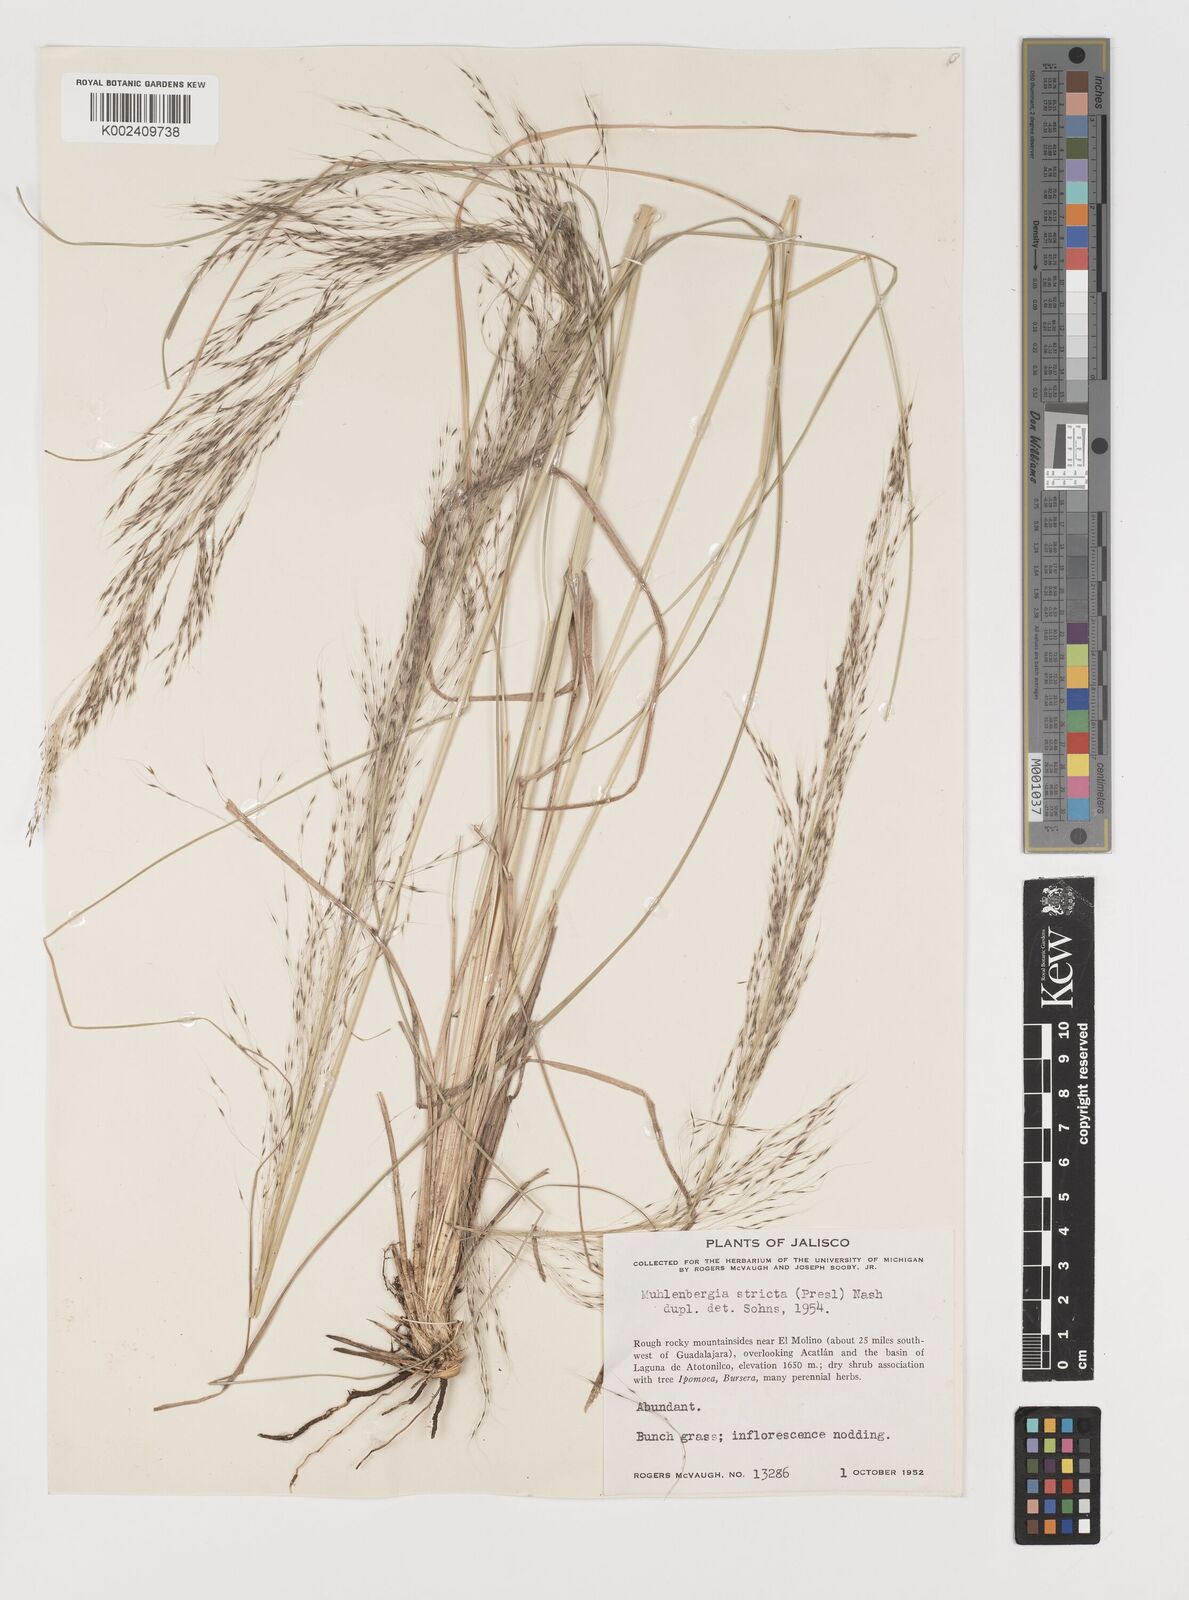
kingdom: Plantae
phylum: Tracheophyta
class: Liliopsida
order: Poales
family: Poaceae
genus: Muhlenbergia
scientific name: Muhlenbergia rigida
